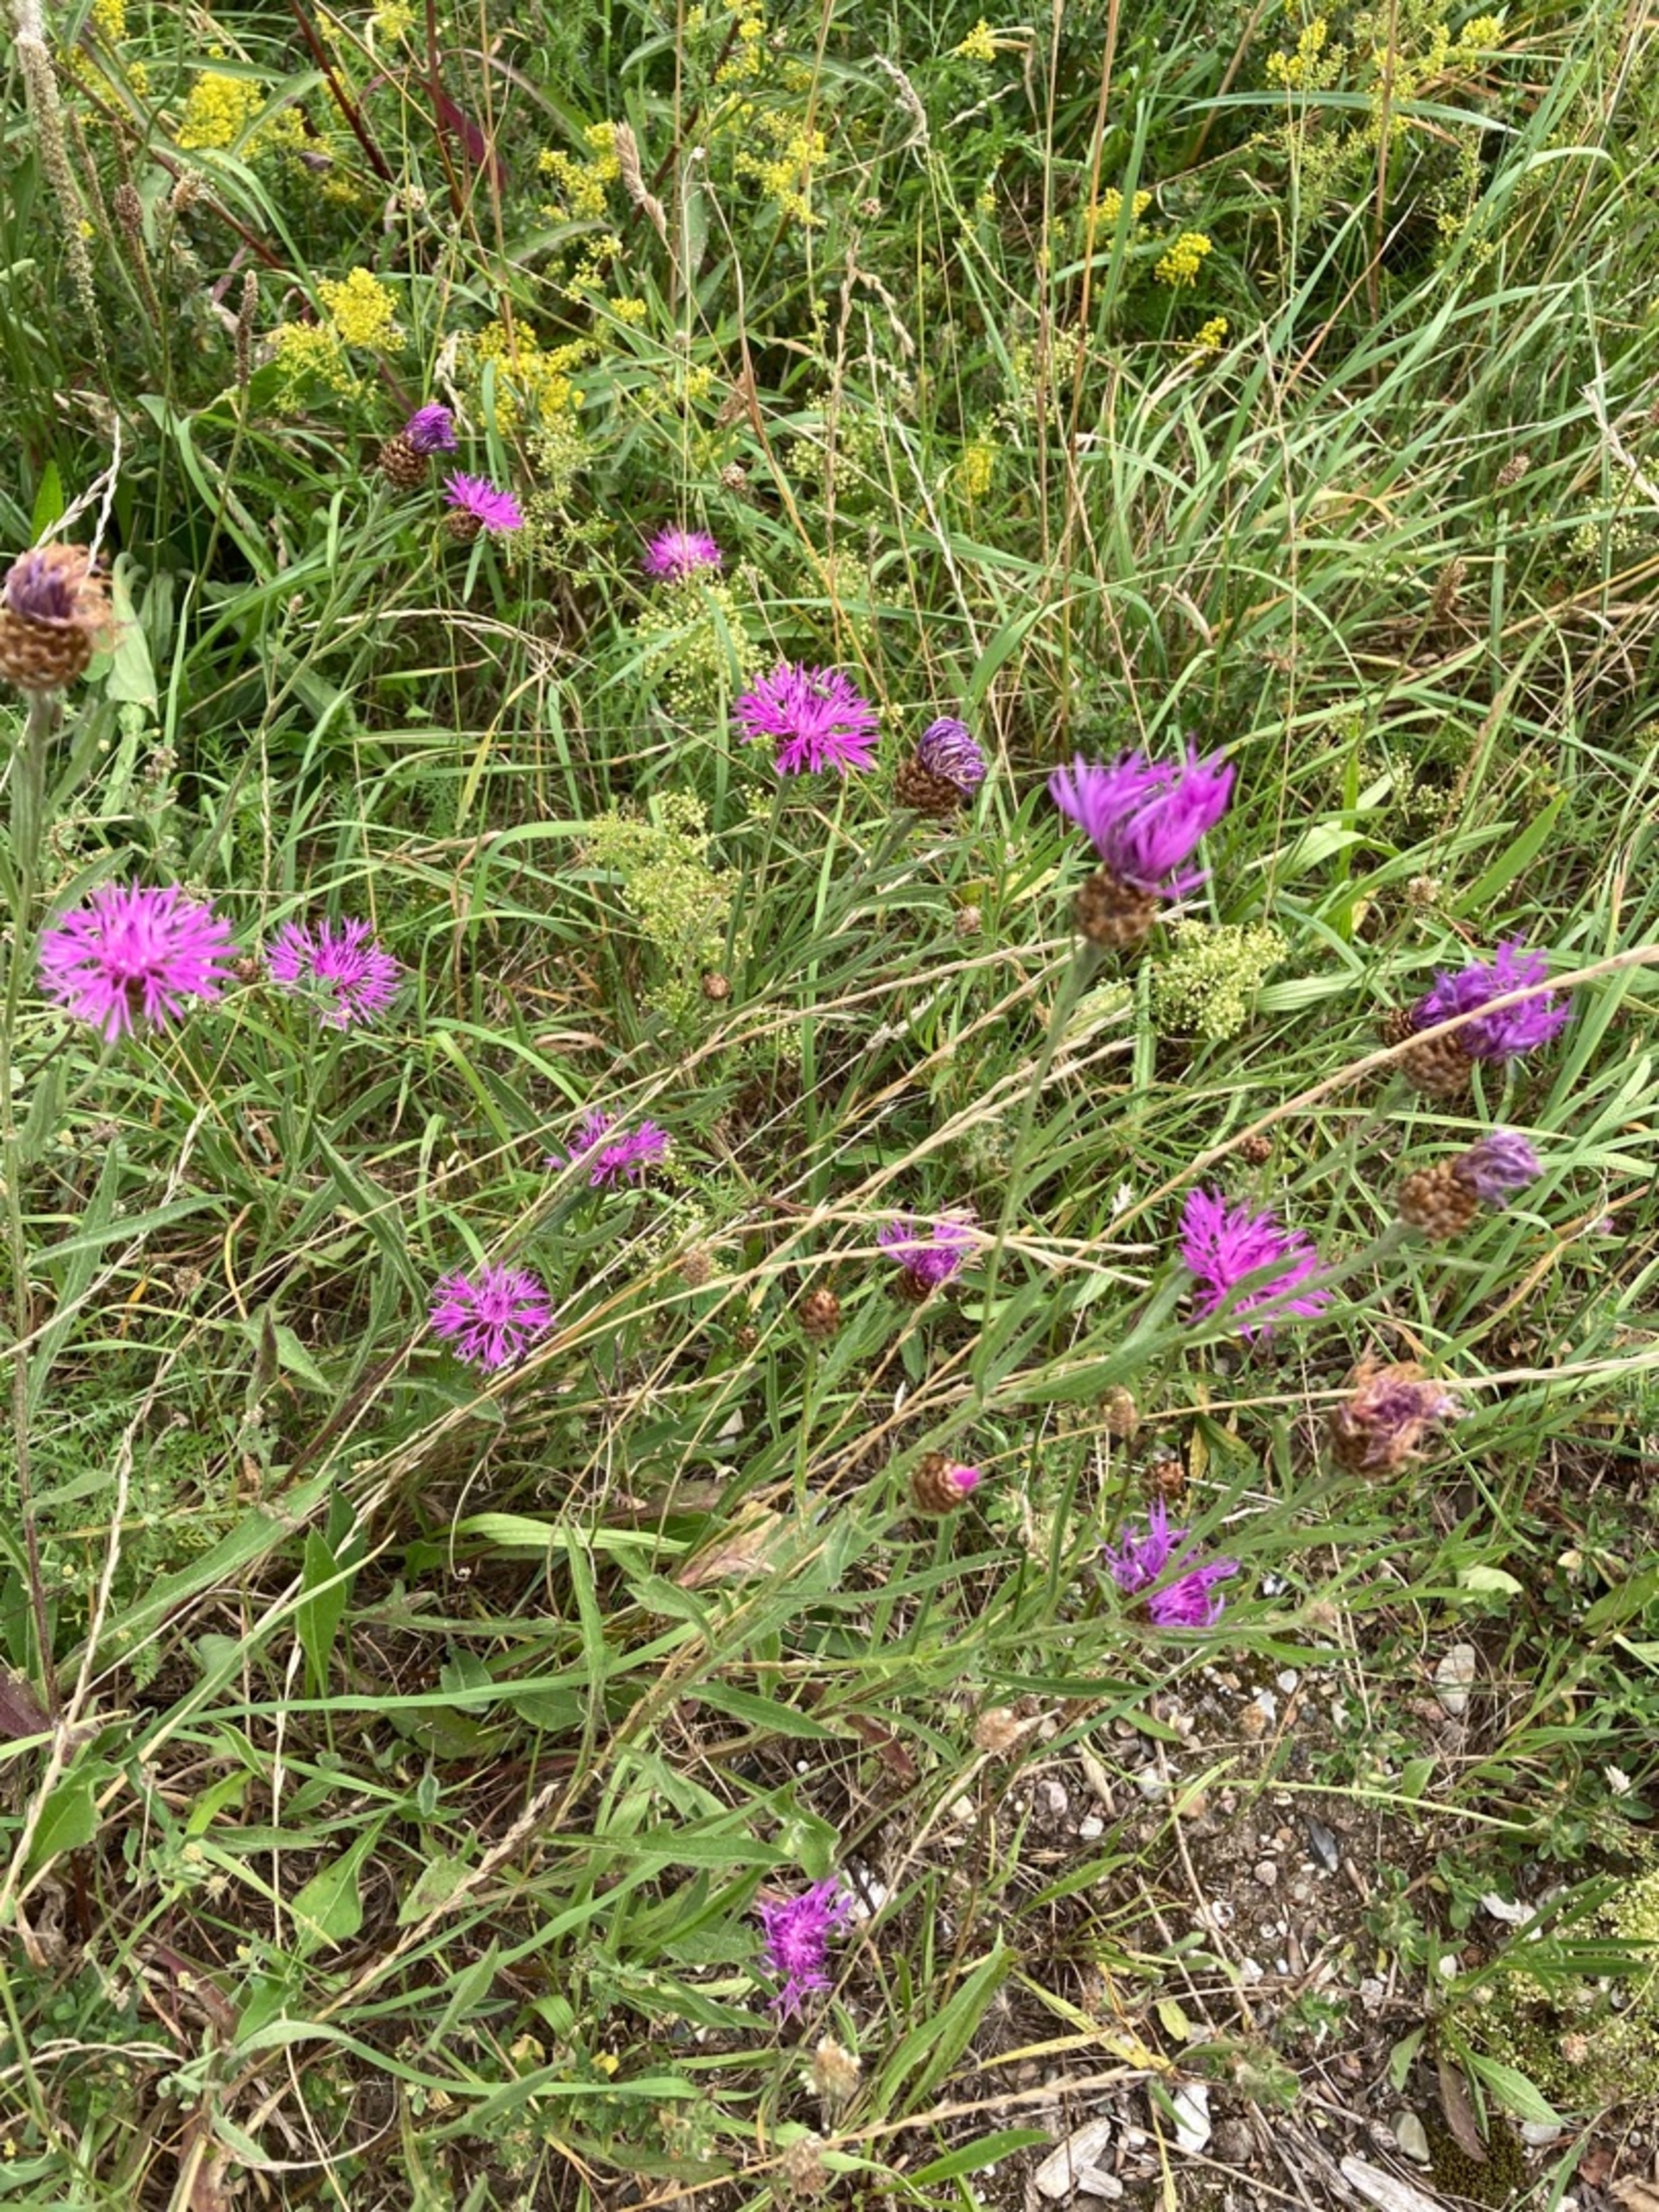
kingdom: Plantae
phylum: Tracheophyta
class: Magnoliopsida
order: Asterales
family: Asteraceae
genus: Centaurea
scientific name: Centaurea jacea
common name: Almindelig knopurt
